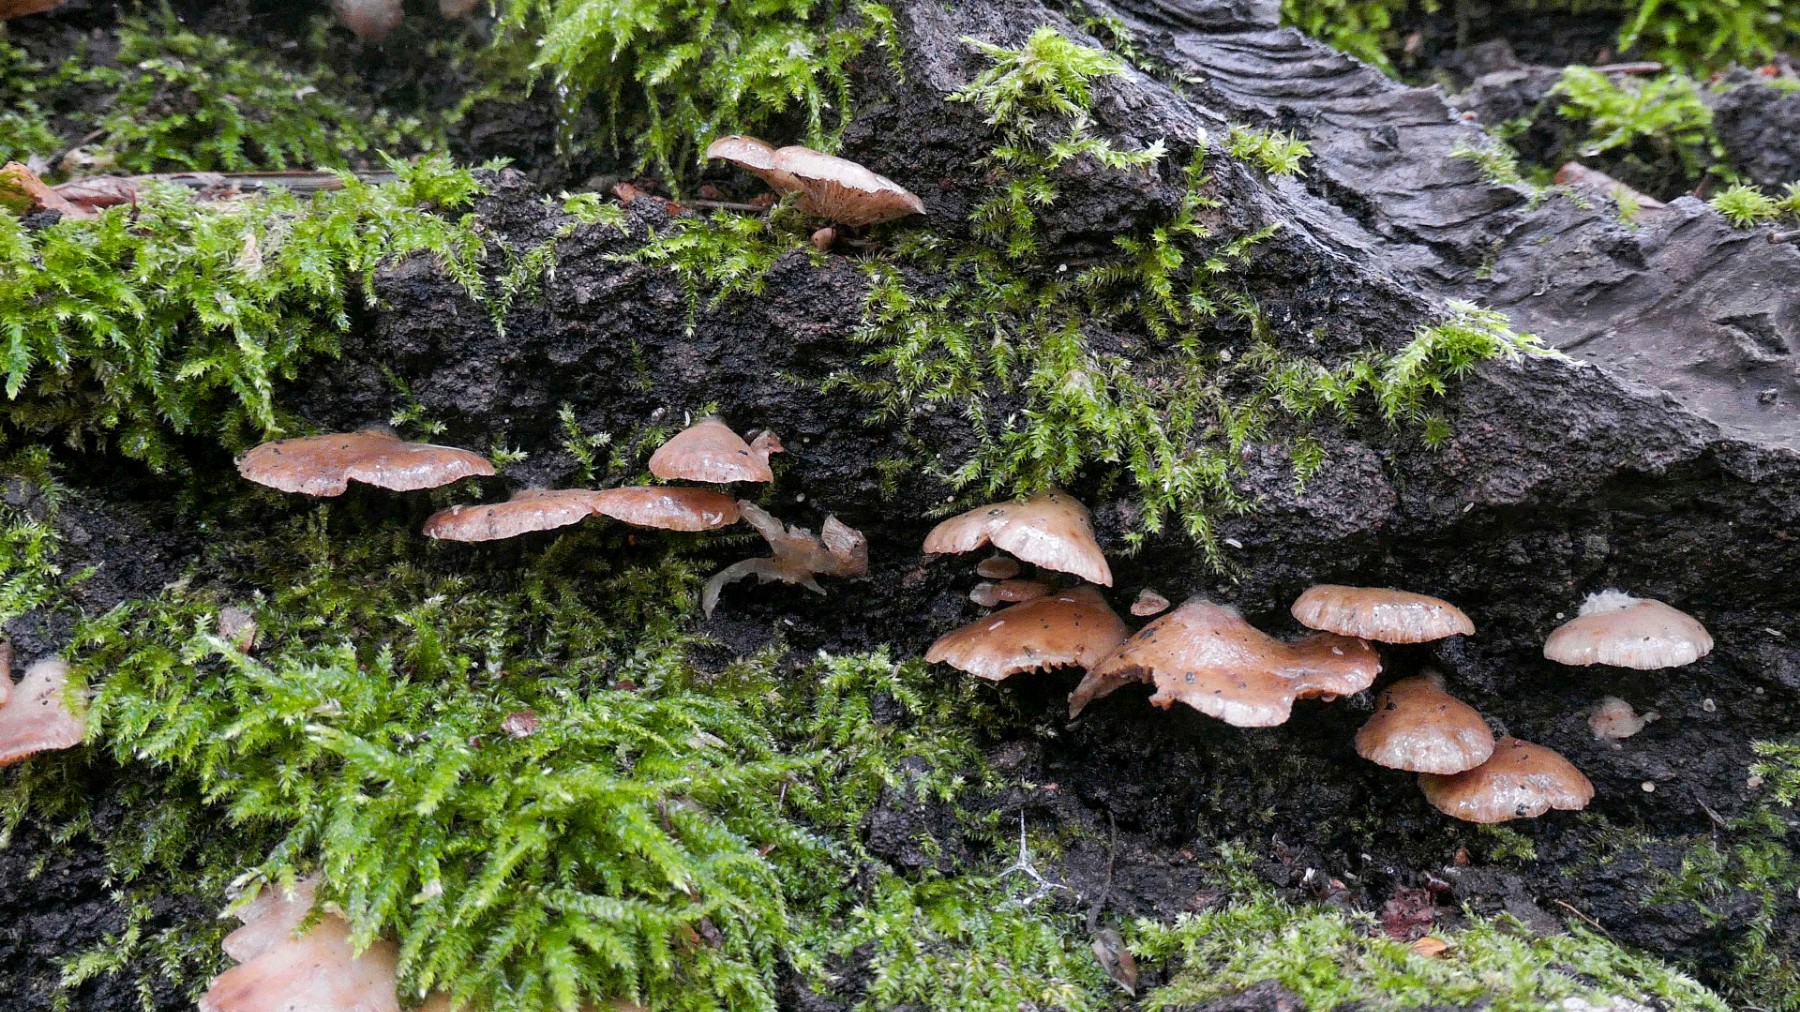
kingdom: Fungi
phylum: Basidiomycota
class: Agaricomycetes
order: Agaricales
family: Crepidotaceae
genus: Crepidotus
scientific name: Crepidotus mollis
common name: blød muslingesvamp
